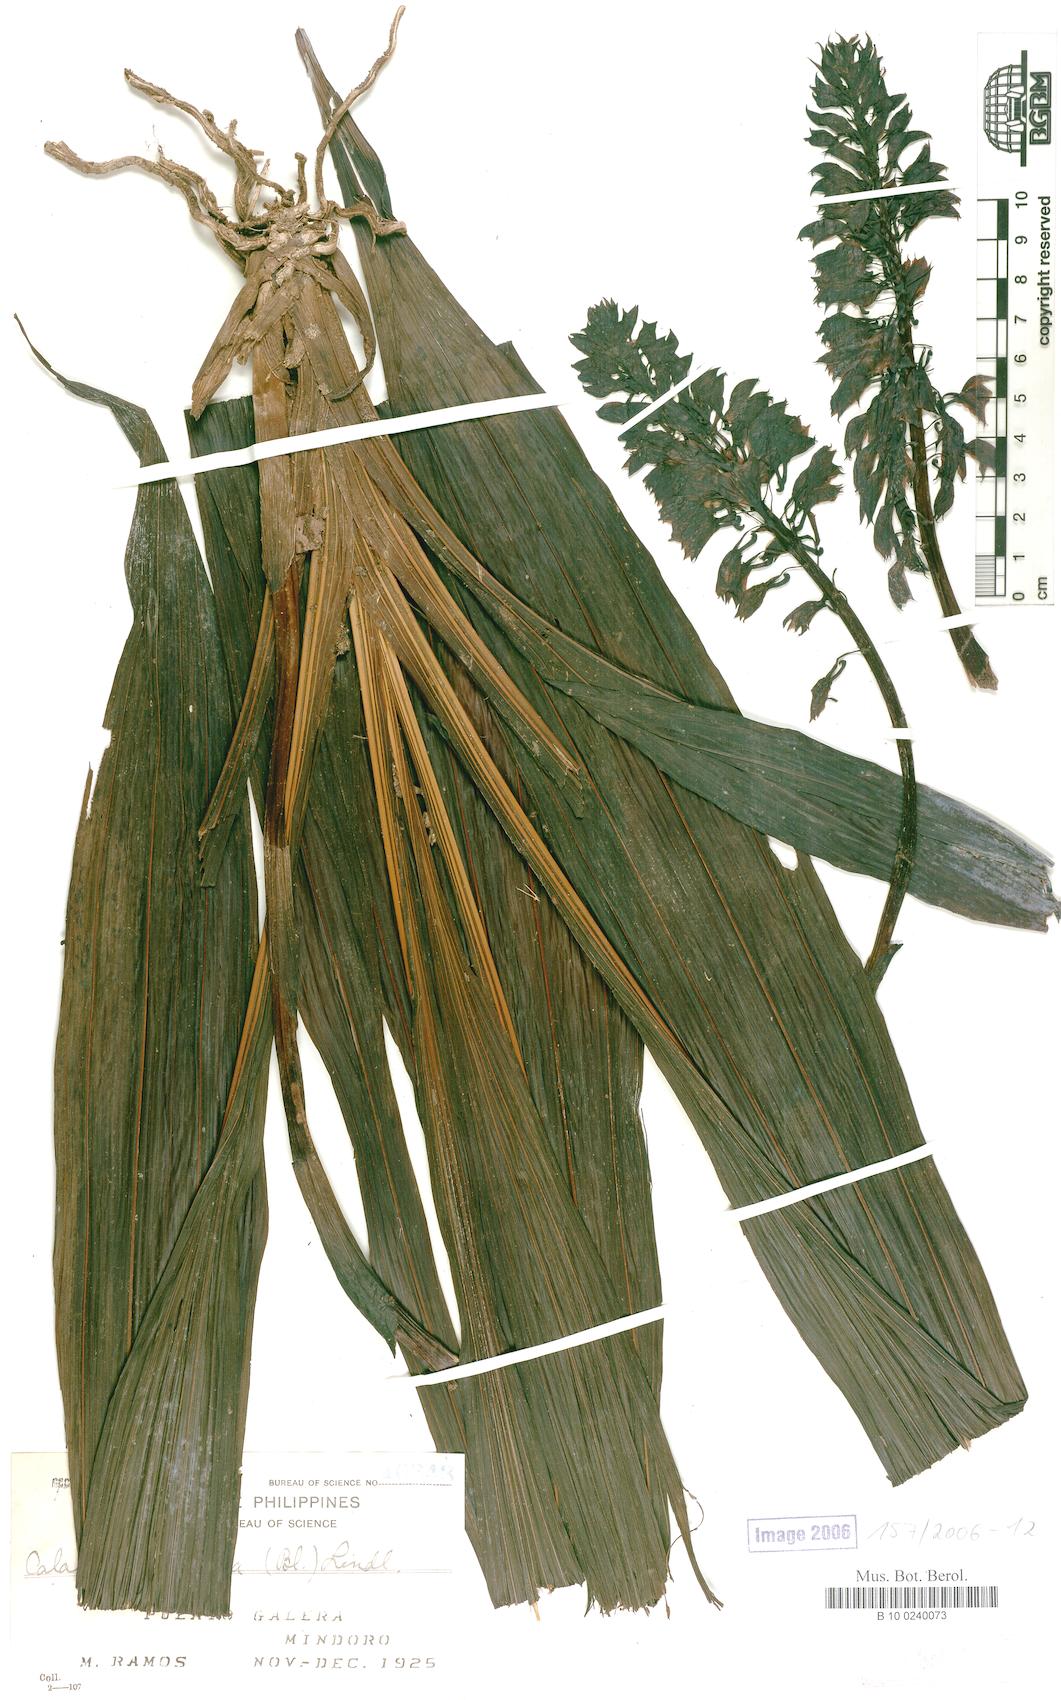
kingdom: Plantae
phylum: Tracheophyta
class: Liliopsida
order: Asparagales
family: Orchidaceae
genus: Calanthe
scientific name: Calanthe pulchra
